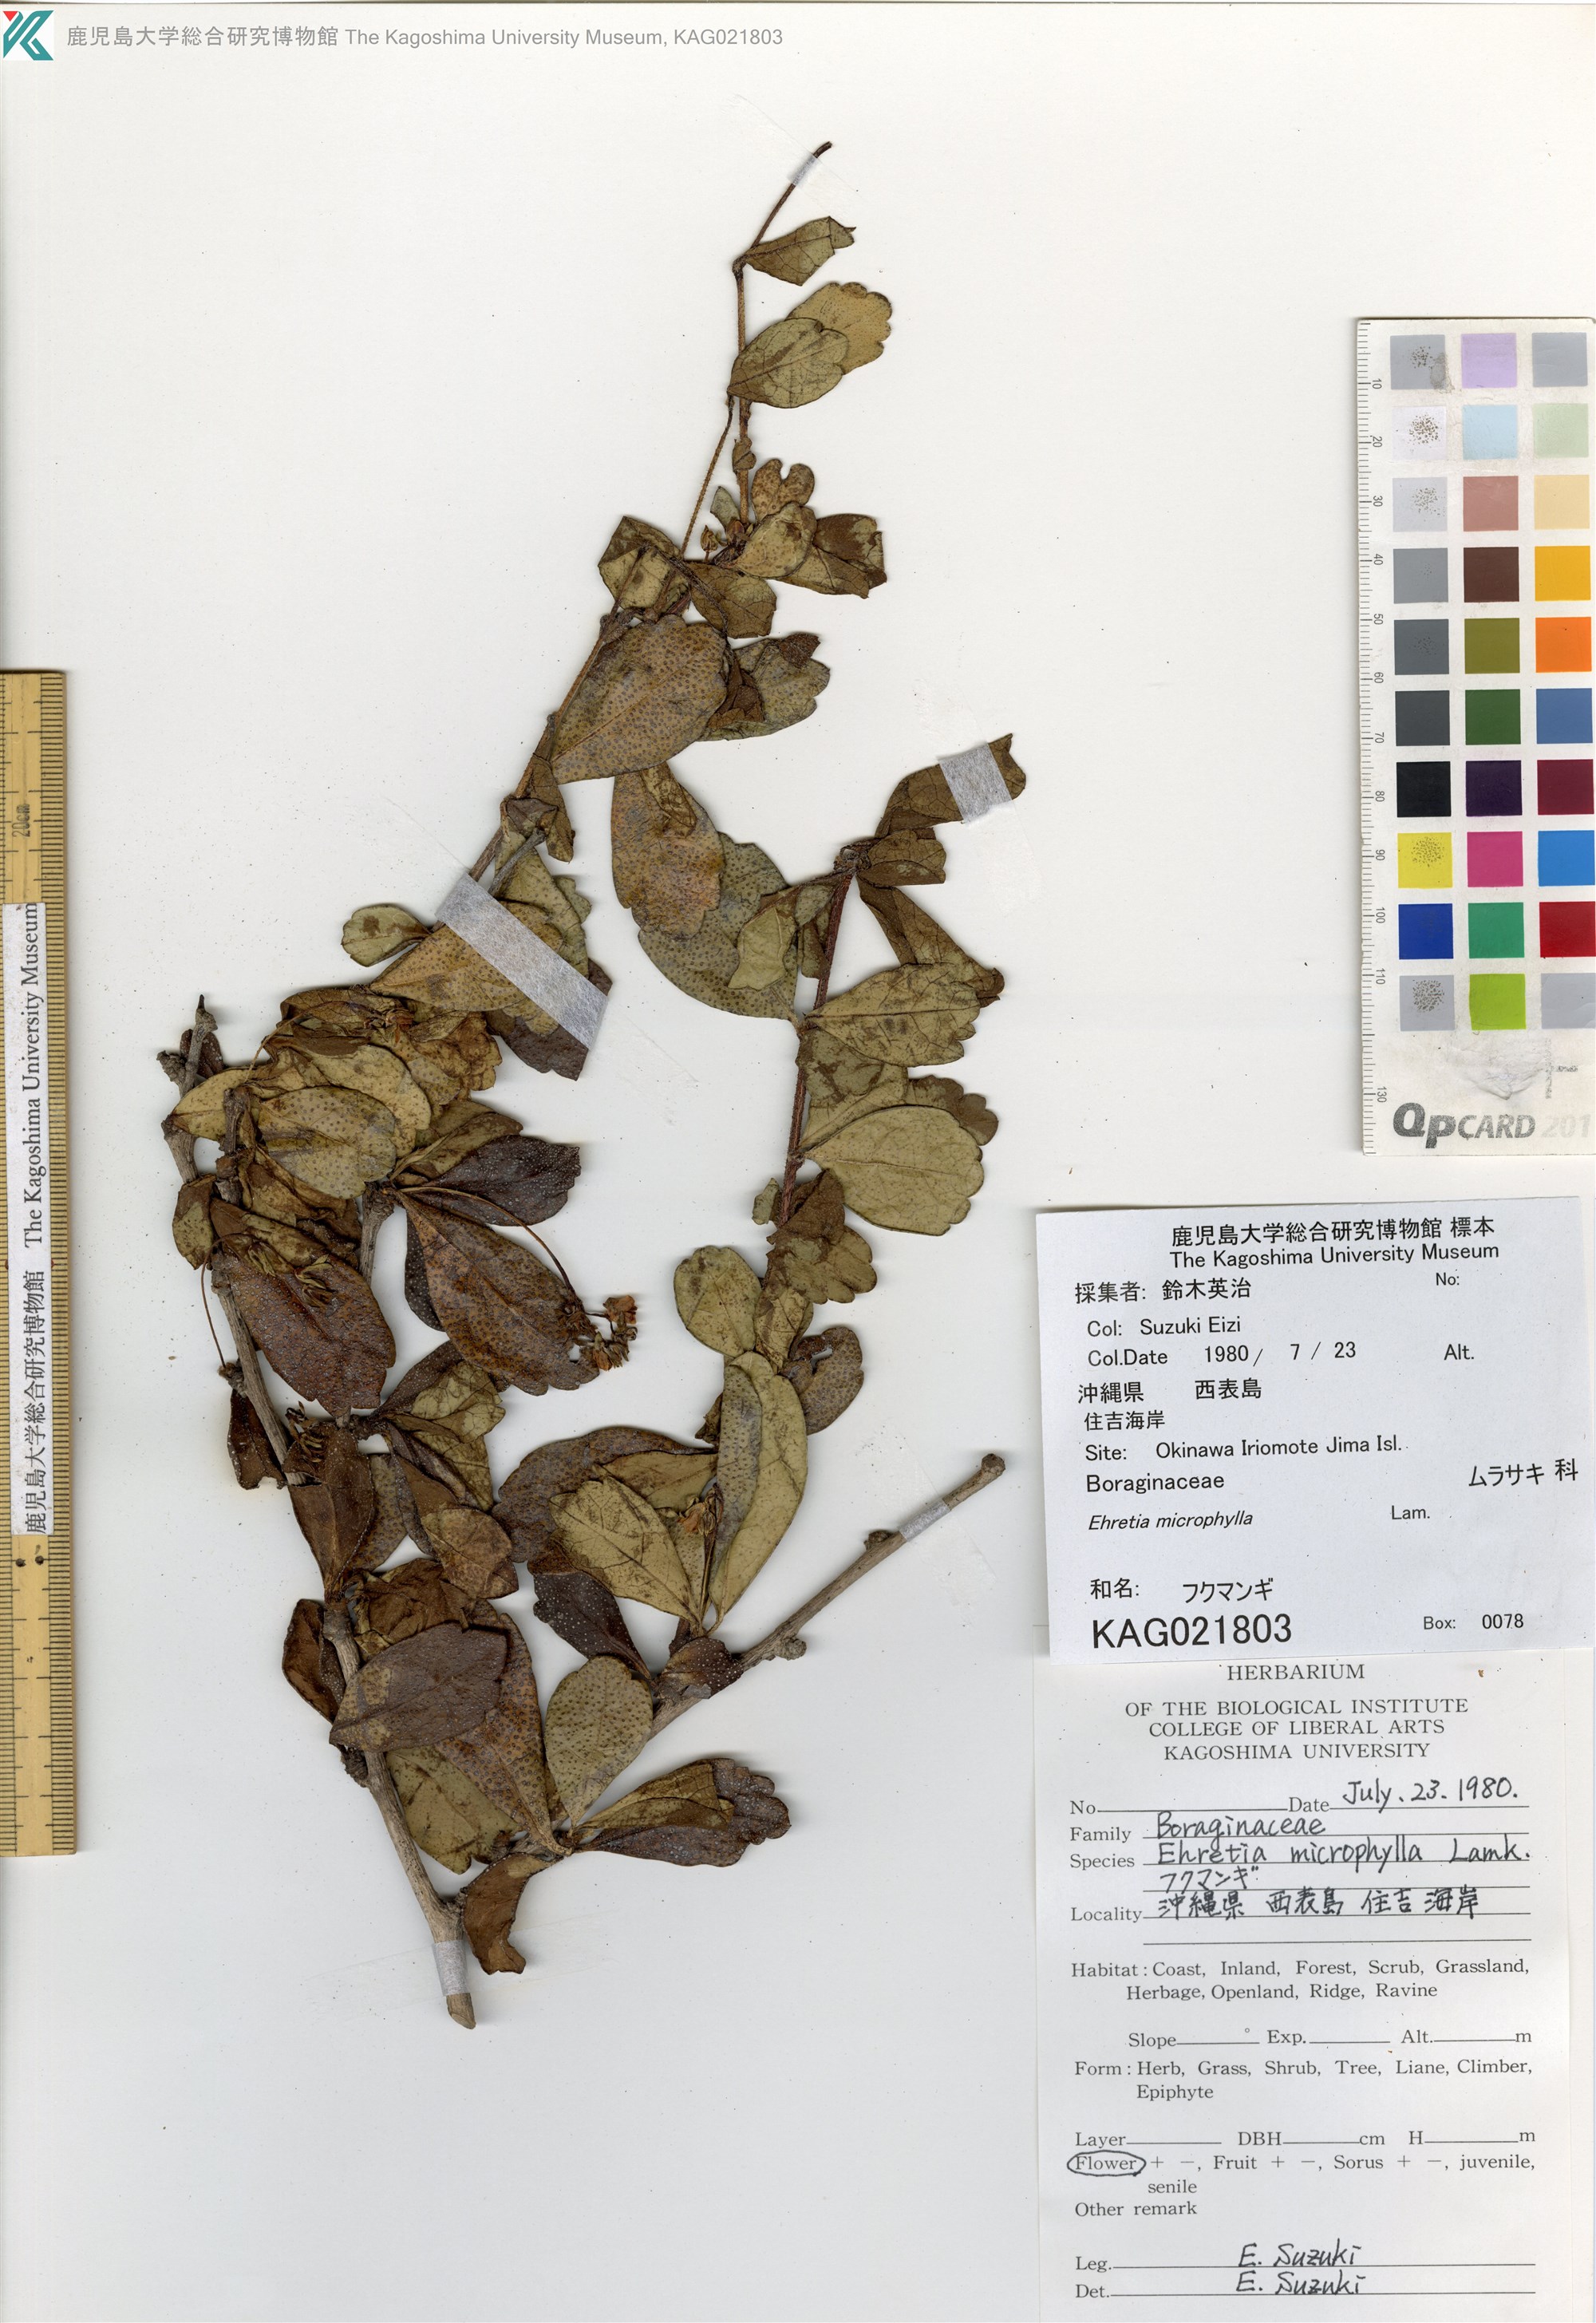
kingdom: Plantae
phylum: Tracheophyta
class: Magnoliopsida
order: Boraginales
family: Ehretiaceae
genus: Ehretia
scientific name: Ehretia microphylla
